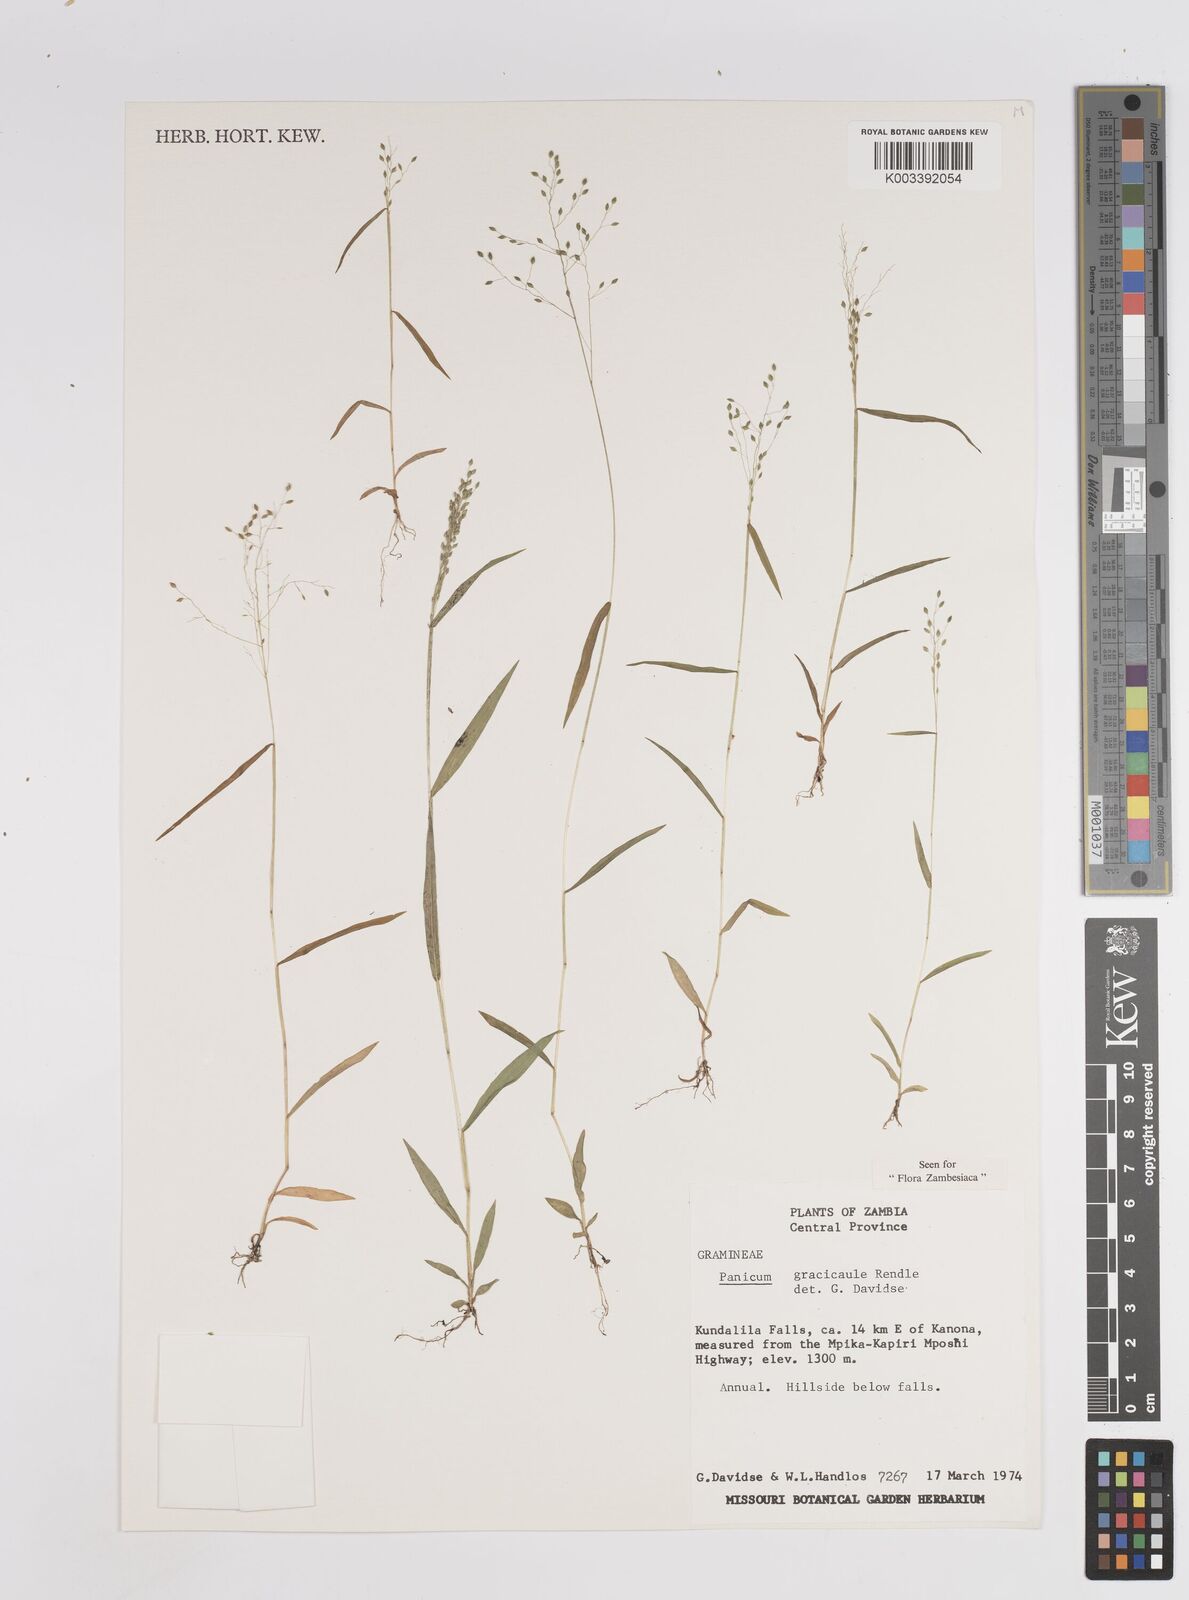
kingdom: Plantae
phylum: Tracheophyta
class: Liliopsida
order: Poales
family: Poaceae
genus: Trichanthecium
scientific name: Trichanthecium gracilicaule
